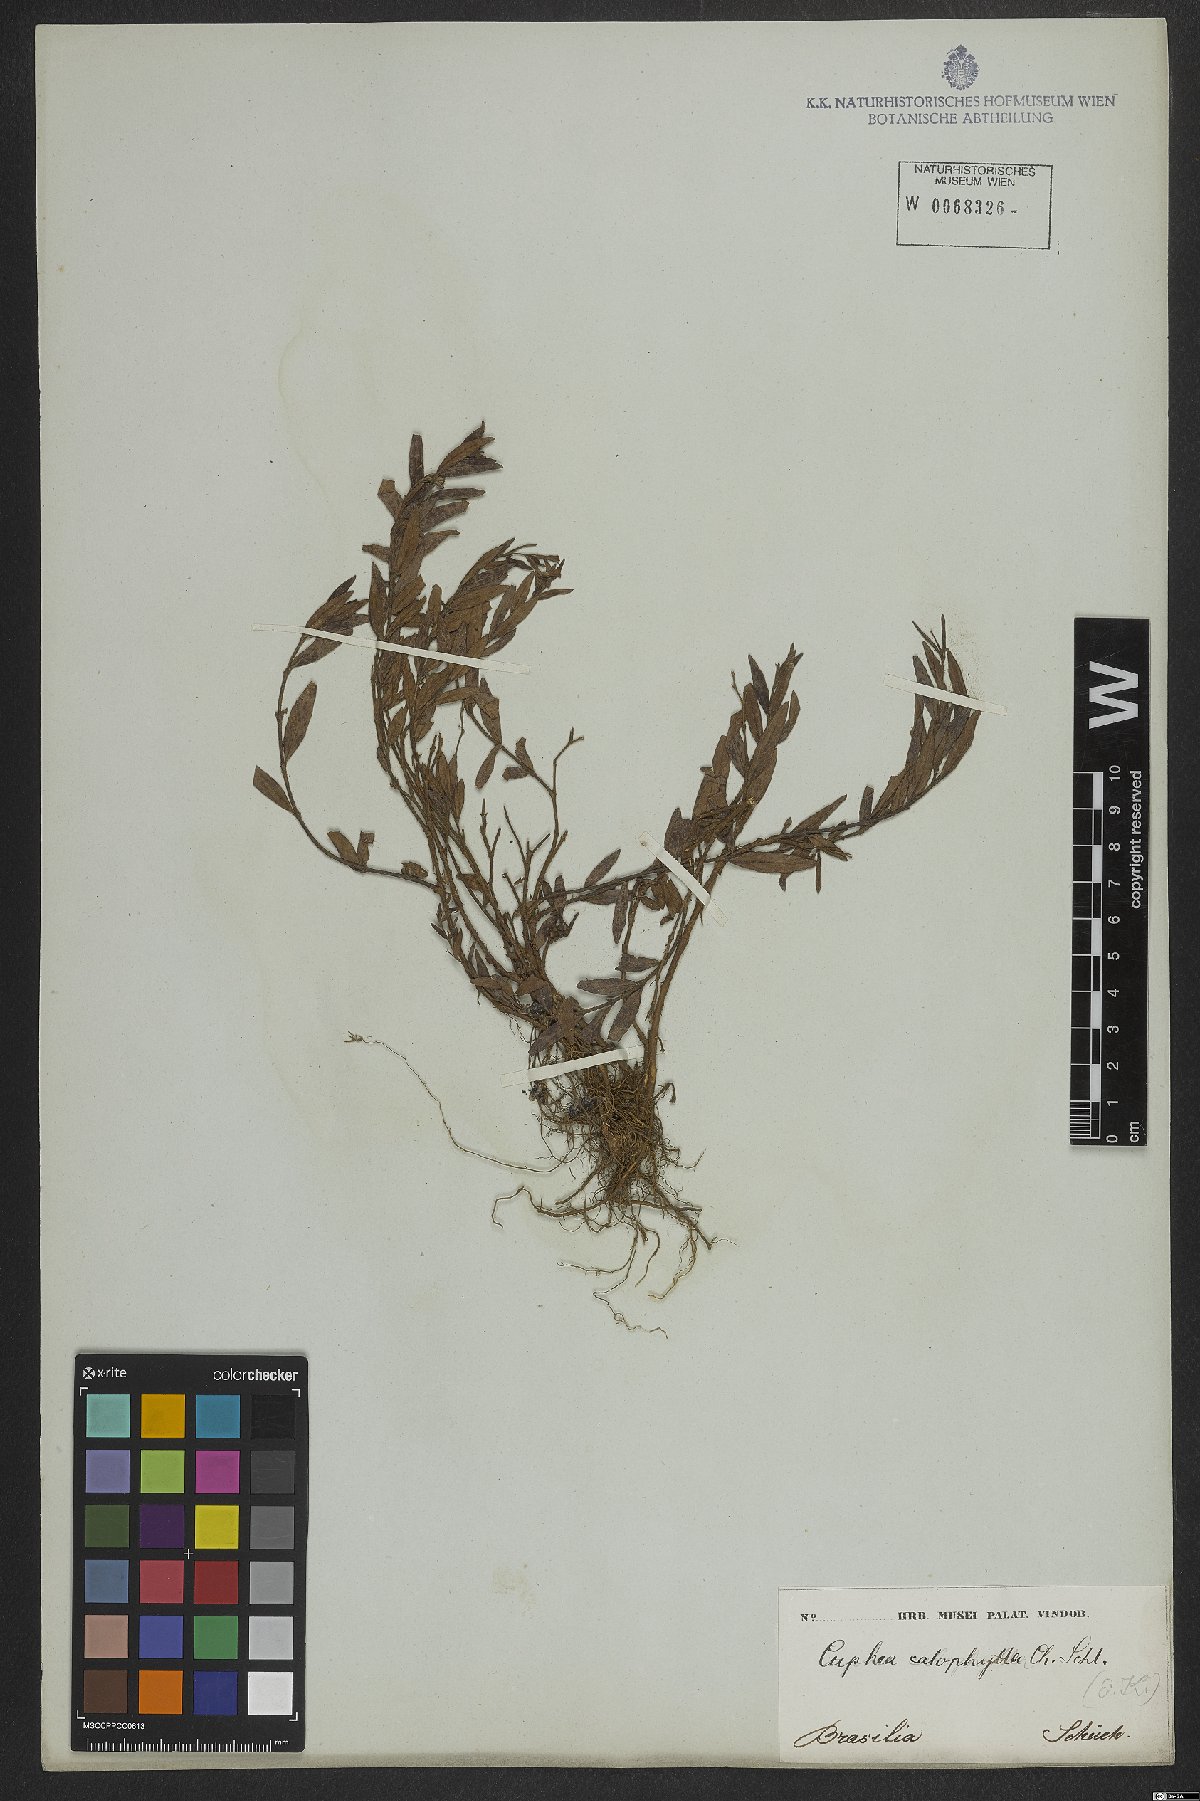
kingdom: Plantae
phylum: Tracheophyta
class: Magnoliopsida
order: Myrtales
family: Lythraceae
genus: Cuphea
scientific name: Cuphea calophylla
